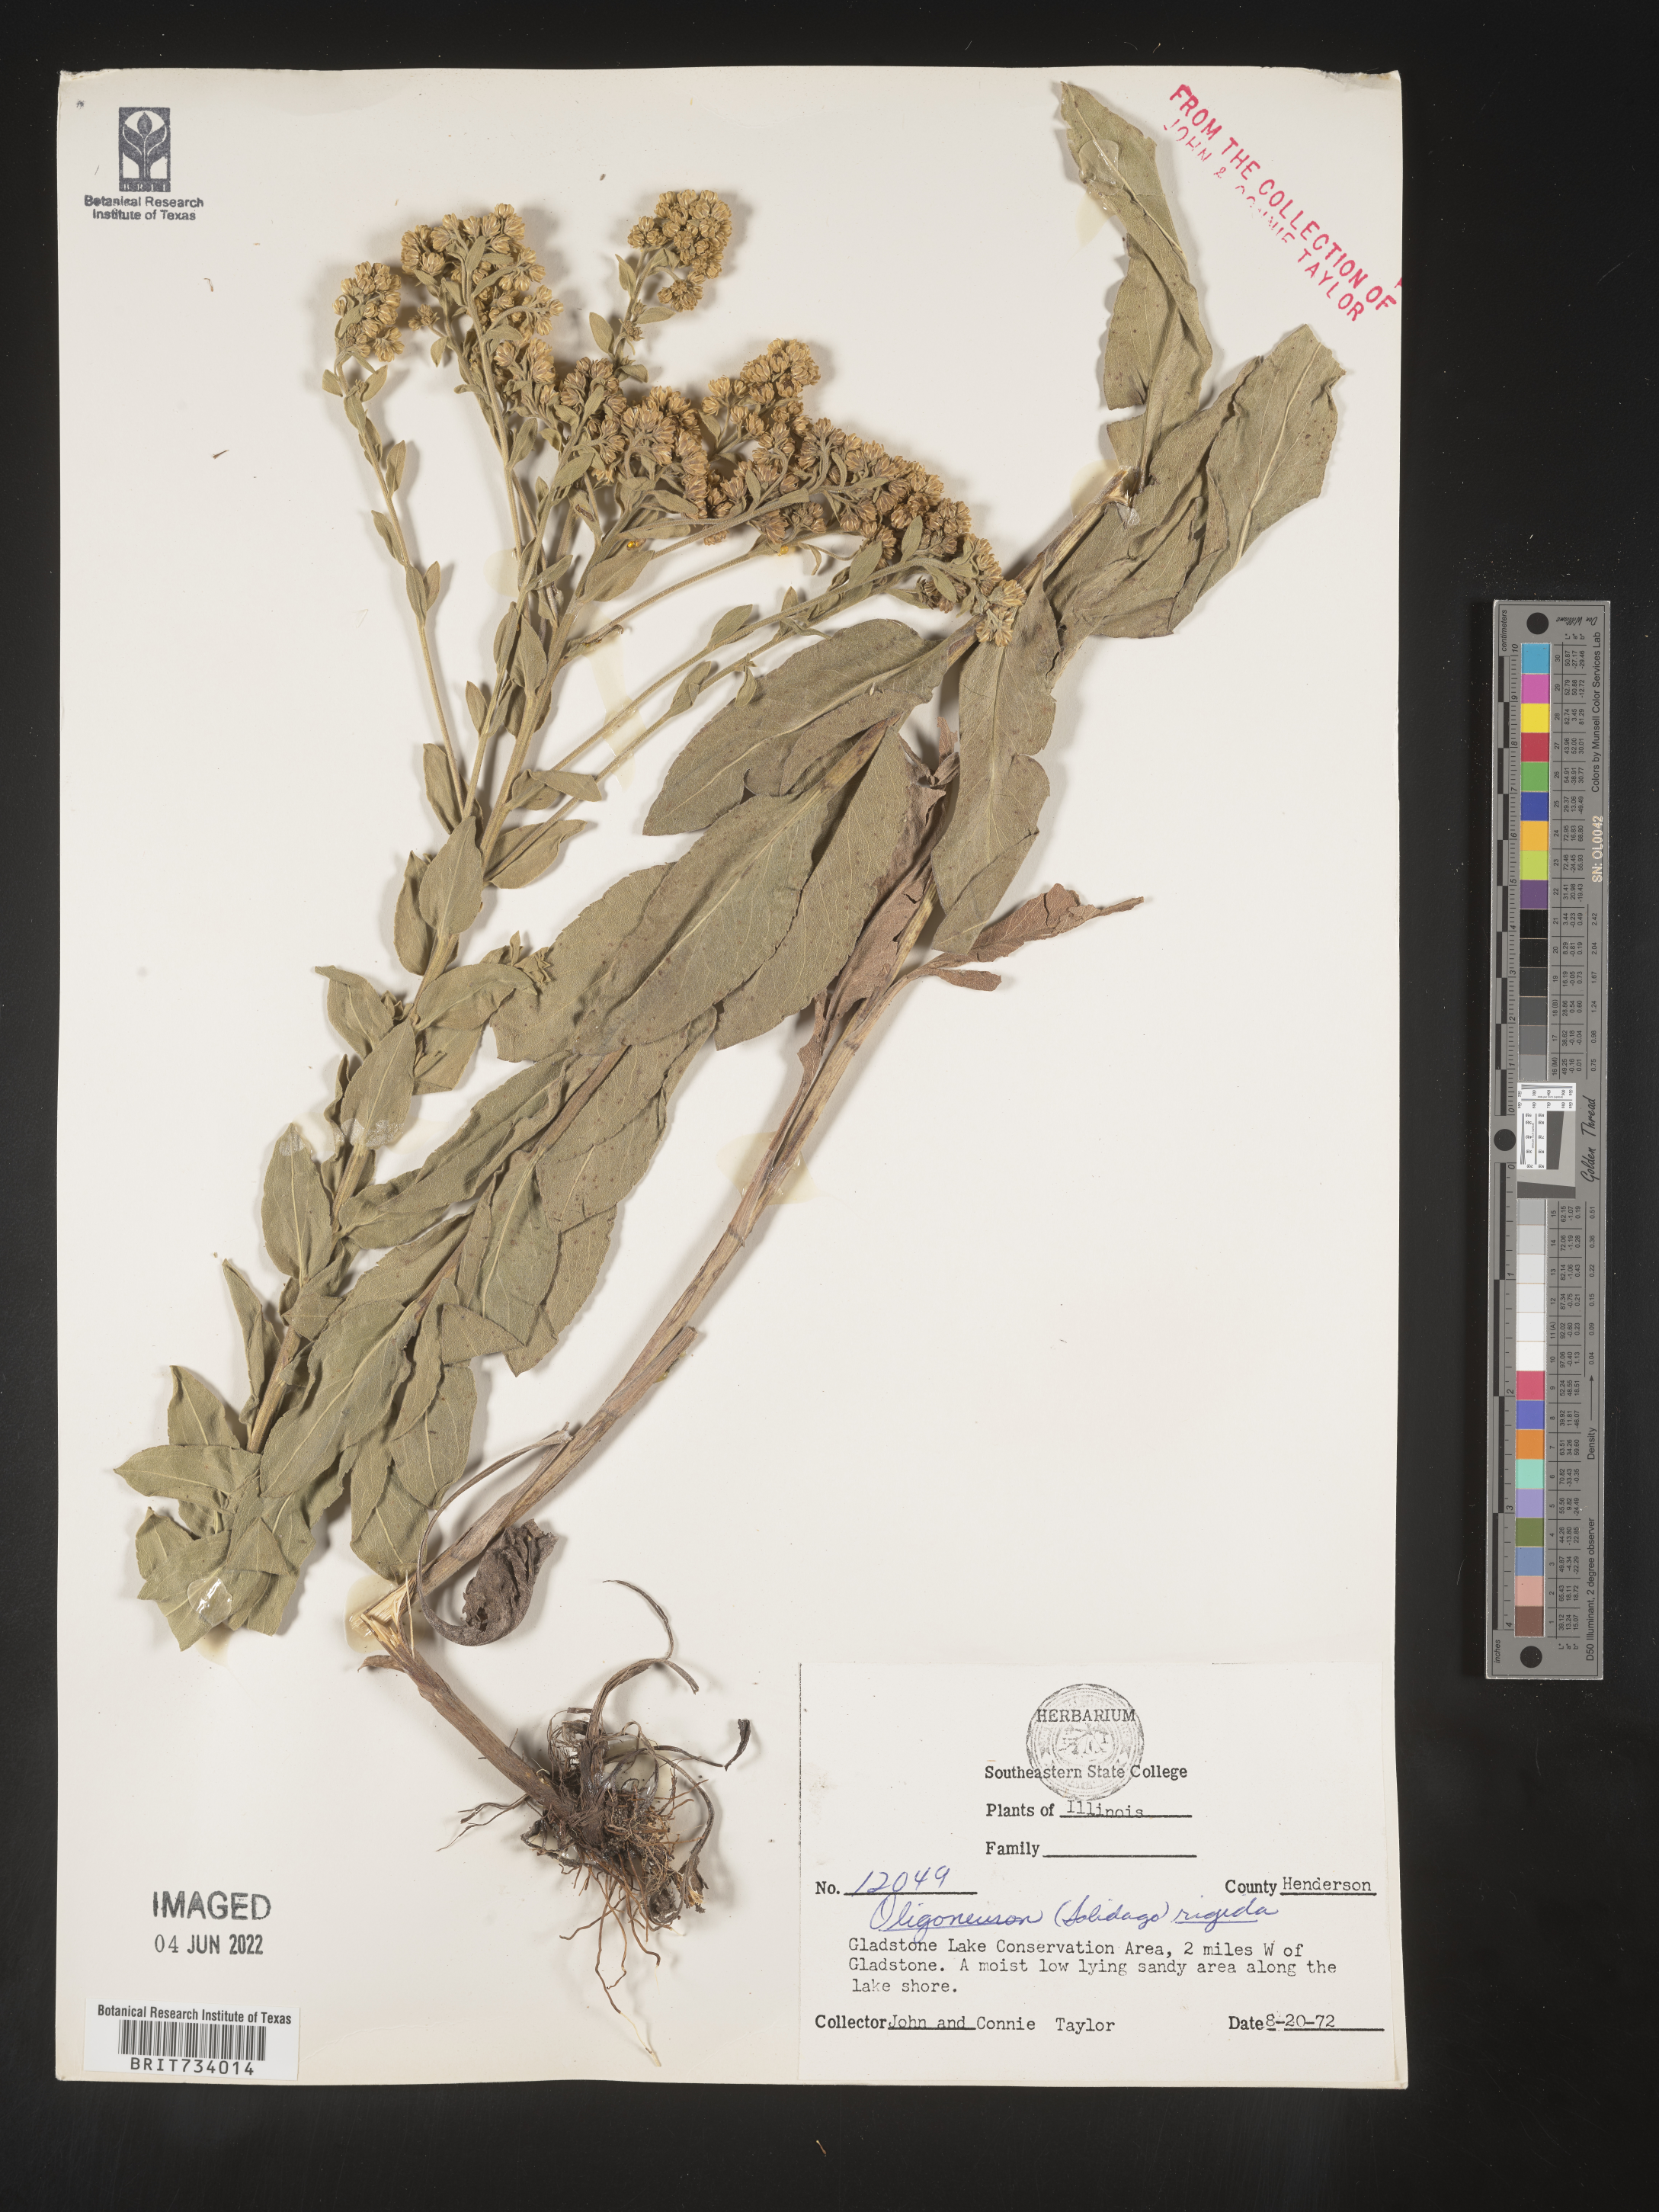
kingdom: Plantae
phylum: Tracheophyta
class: Magnoliopsida
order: Asterales
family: Asteraceae
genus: Solidago
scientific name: Solidago rigida
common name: Rigid goldenrod
